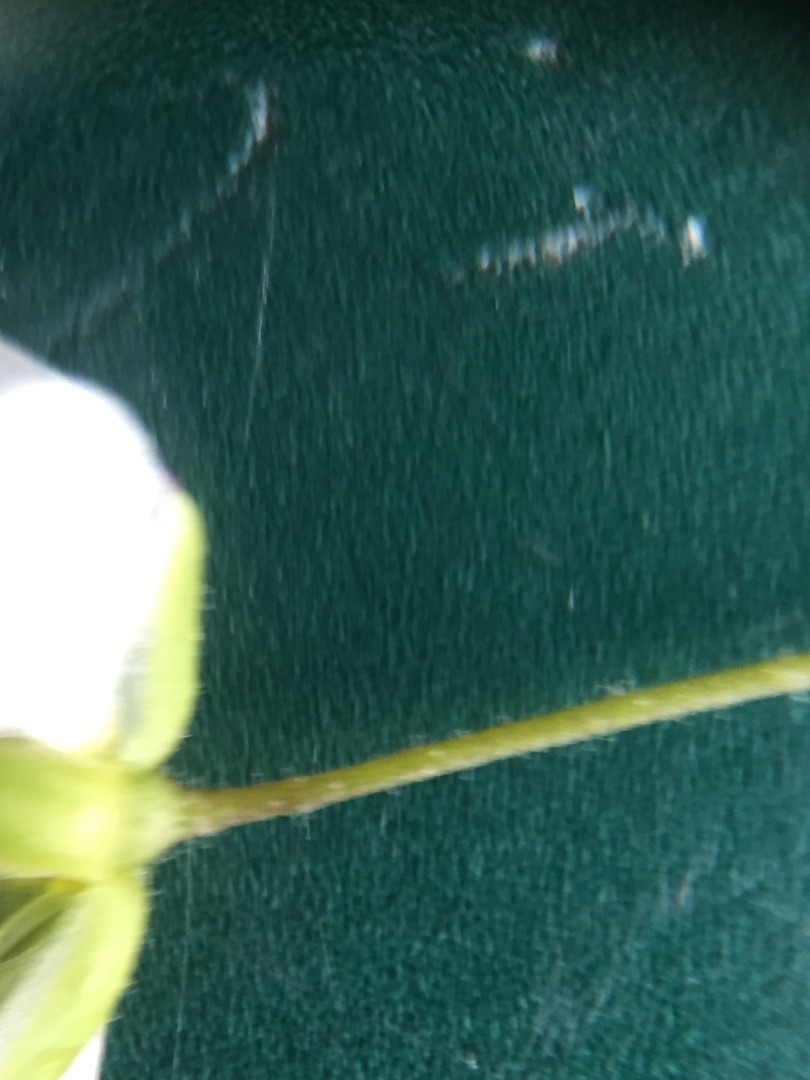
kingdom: Plantae
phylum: Tracheophyta
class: Magnoliopsida
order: Caryophyllales
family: Caryophyllaceae
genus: Sagina
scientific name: Sagina nodosa
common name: Knude-firling
